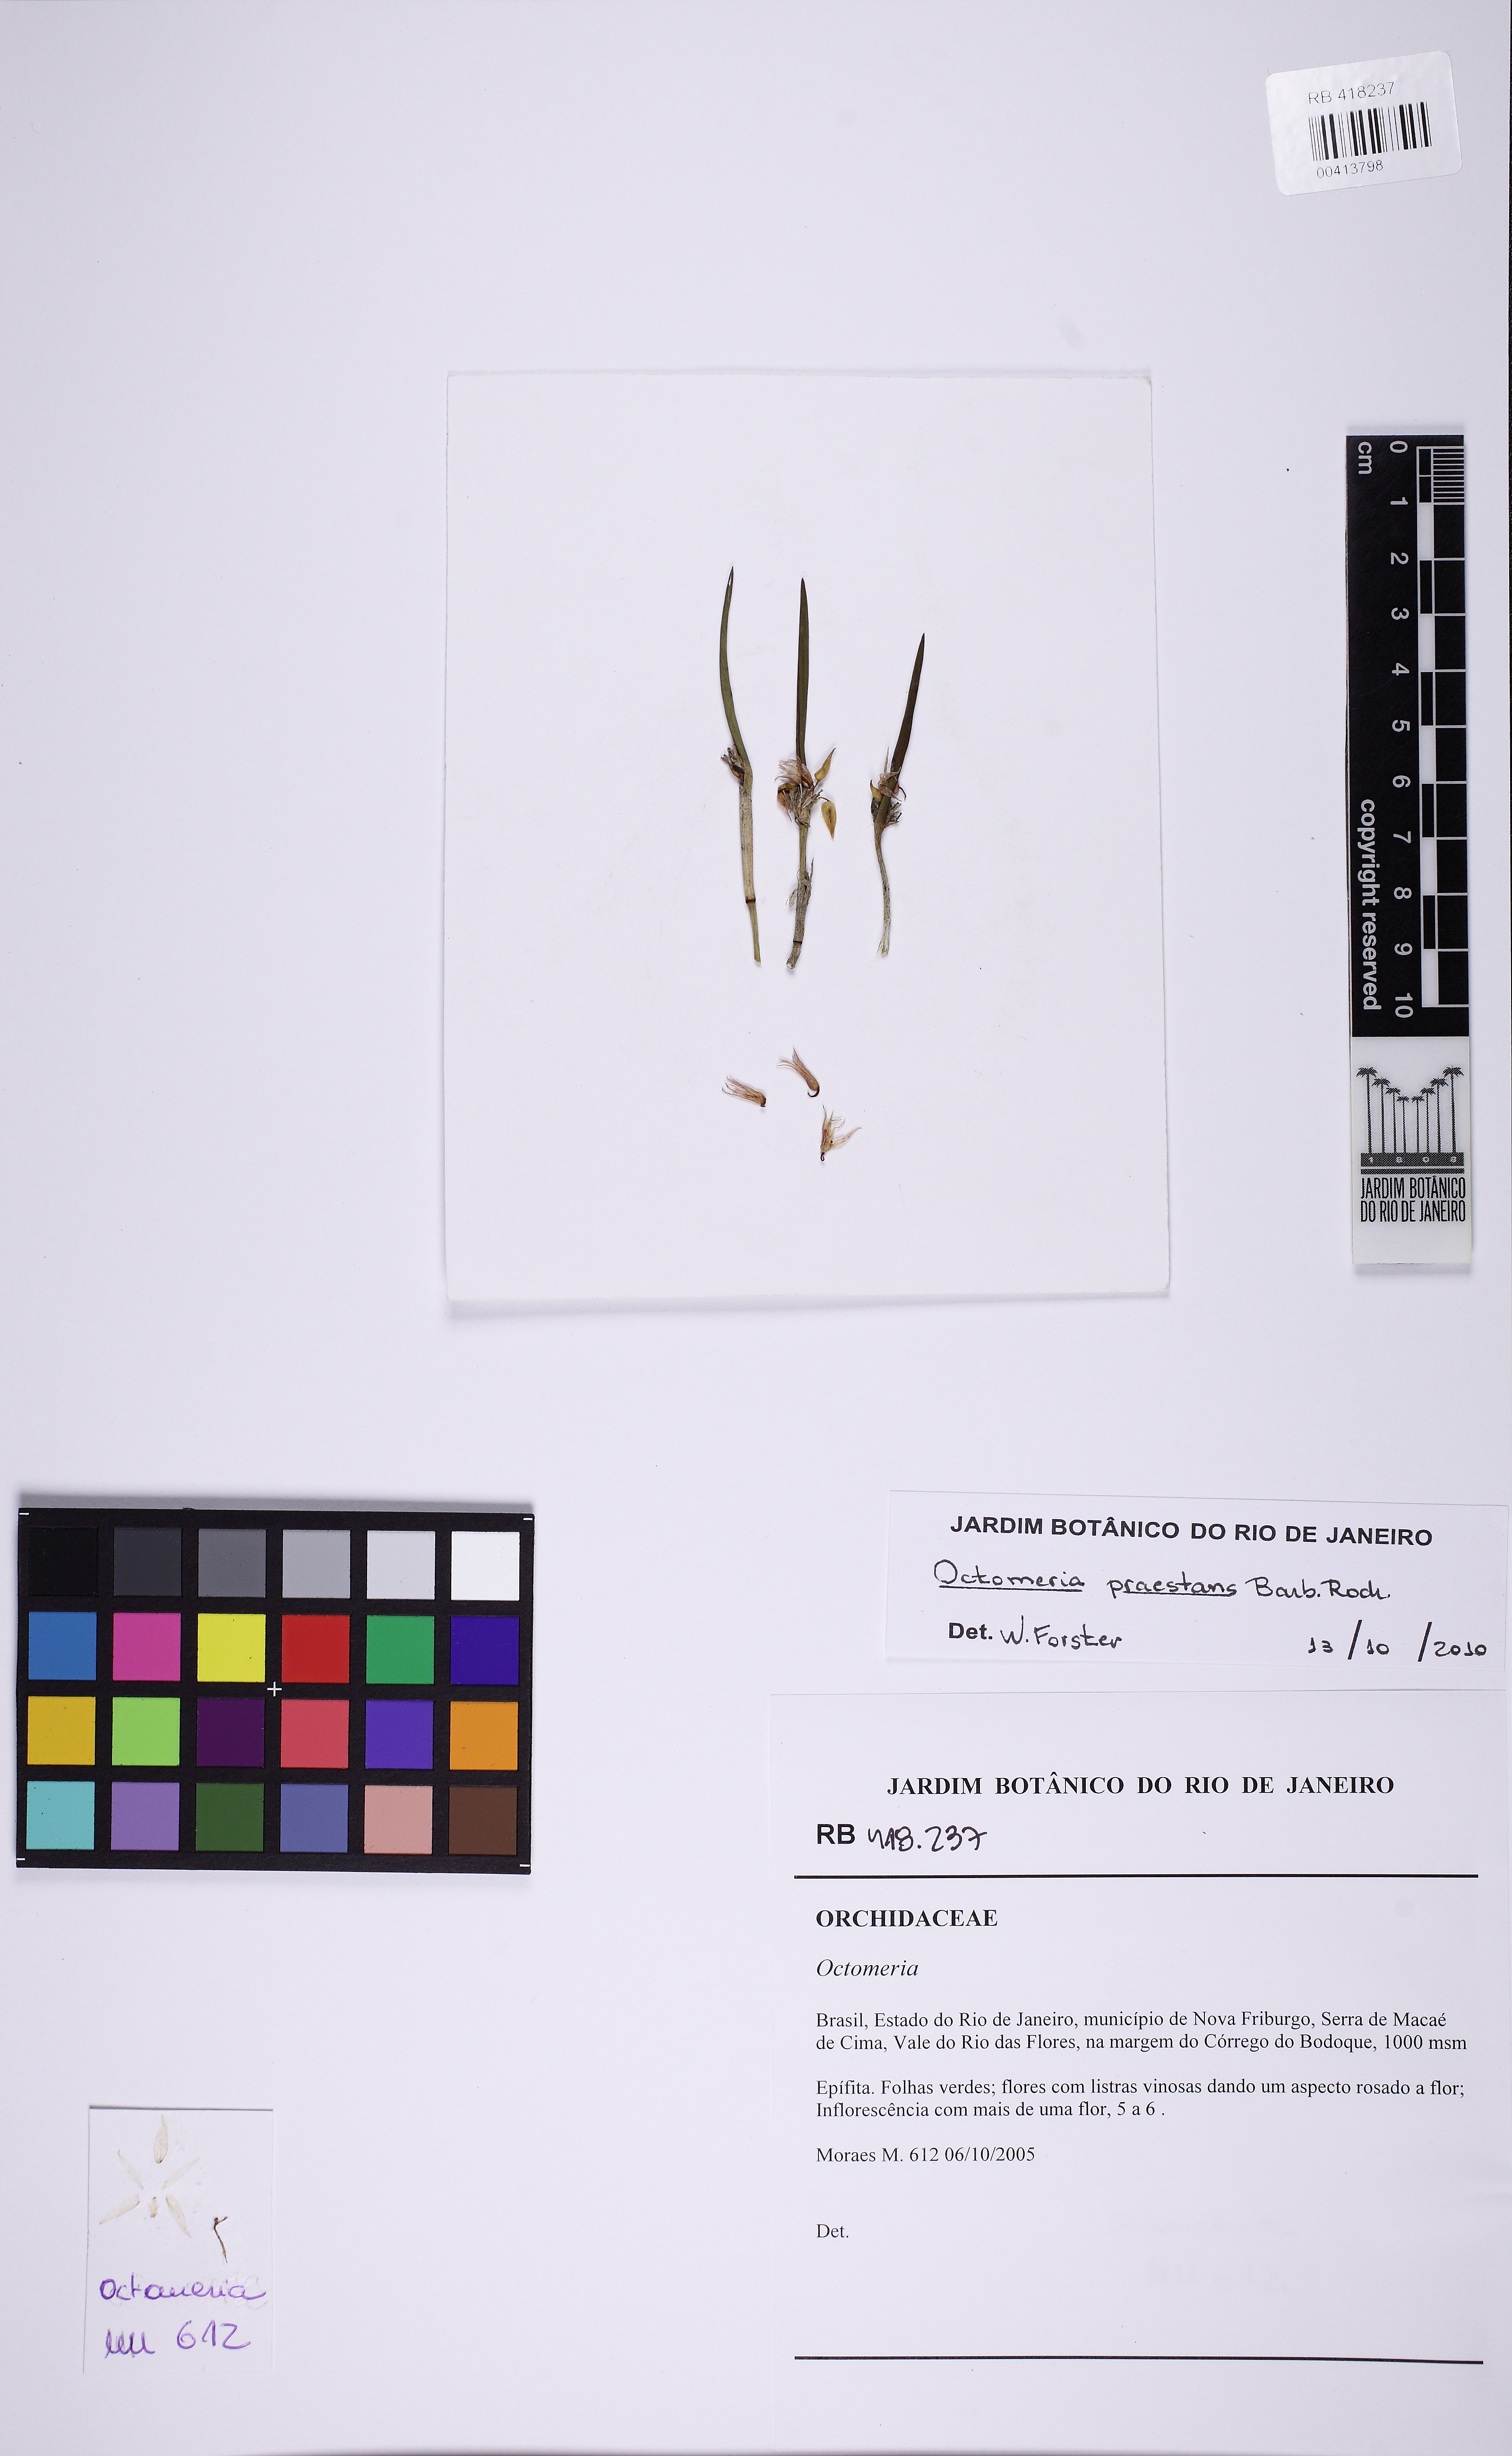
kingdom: Plantae
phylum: Tracheophyta
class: Liliopsida
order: Asparagales
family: Orchidaceae
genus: Octomeria
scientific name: Octomeria tricolor
